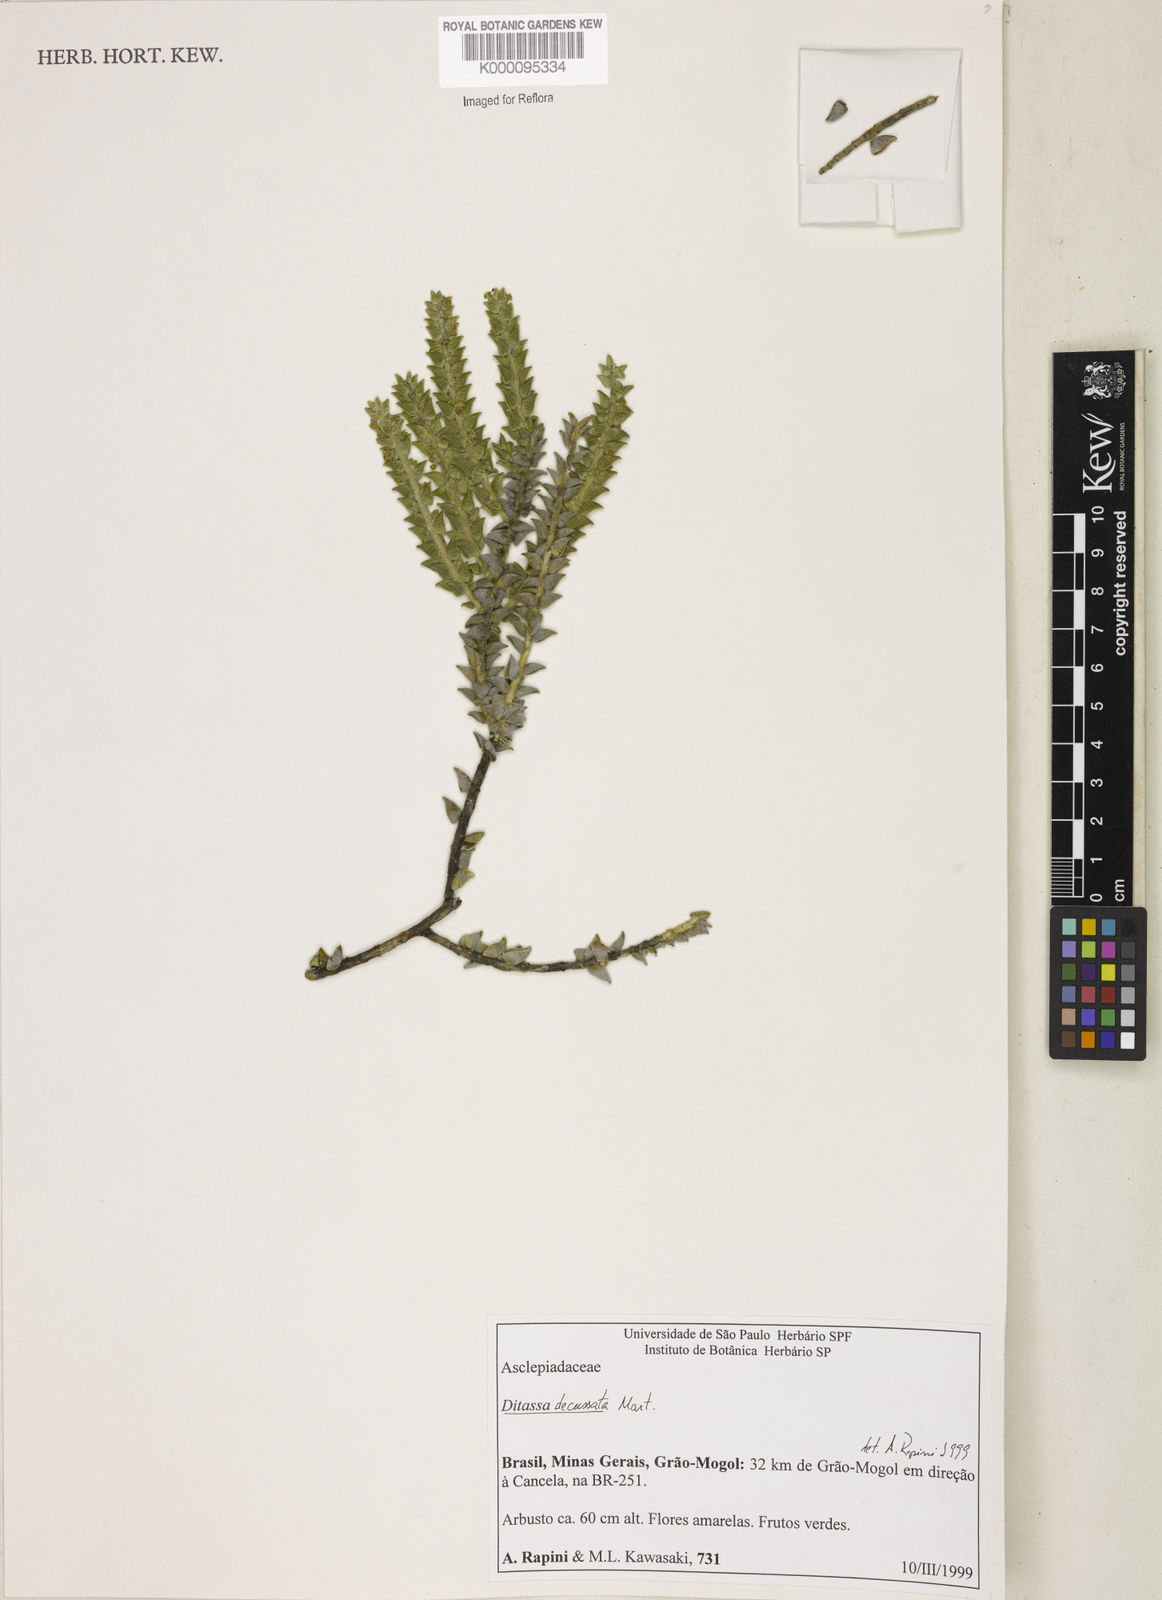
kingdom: Plantae
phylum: Tracheophyta
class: Magnoliopsida
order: Gentianales
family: Apocynaceae
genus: Minaria
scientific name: Minaria decussata
